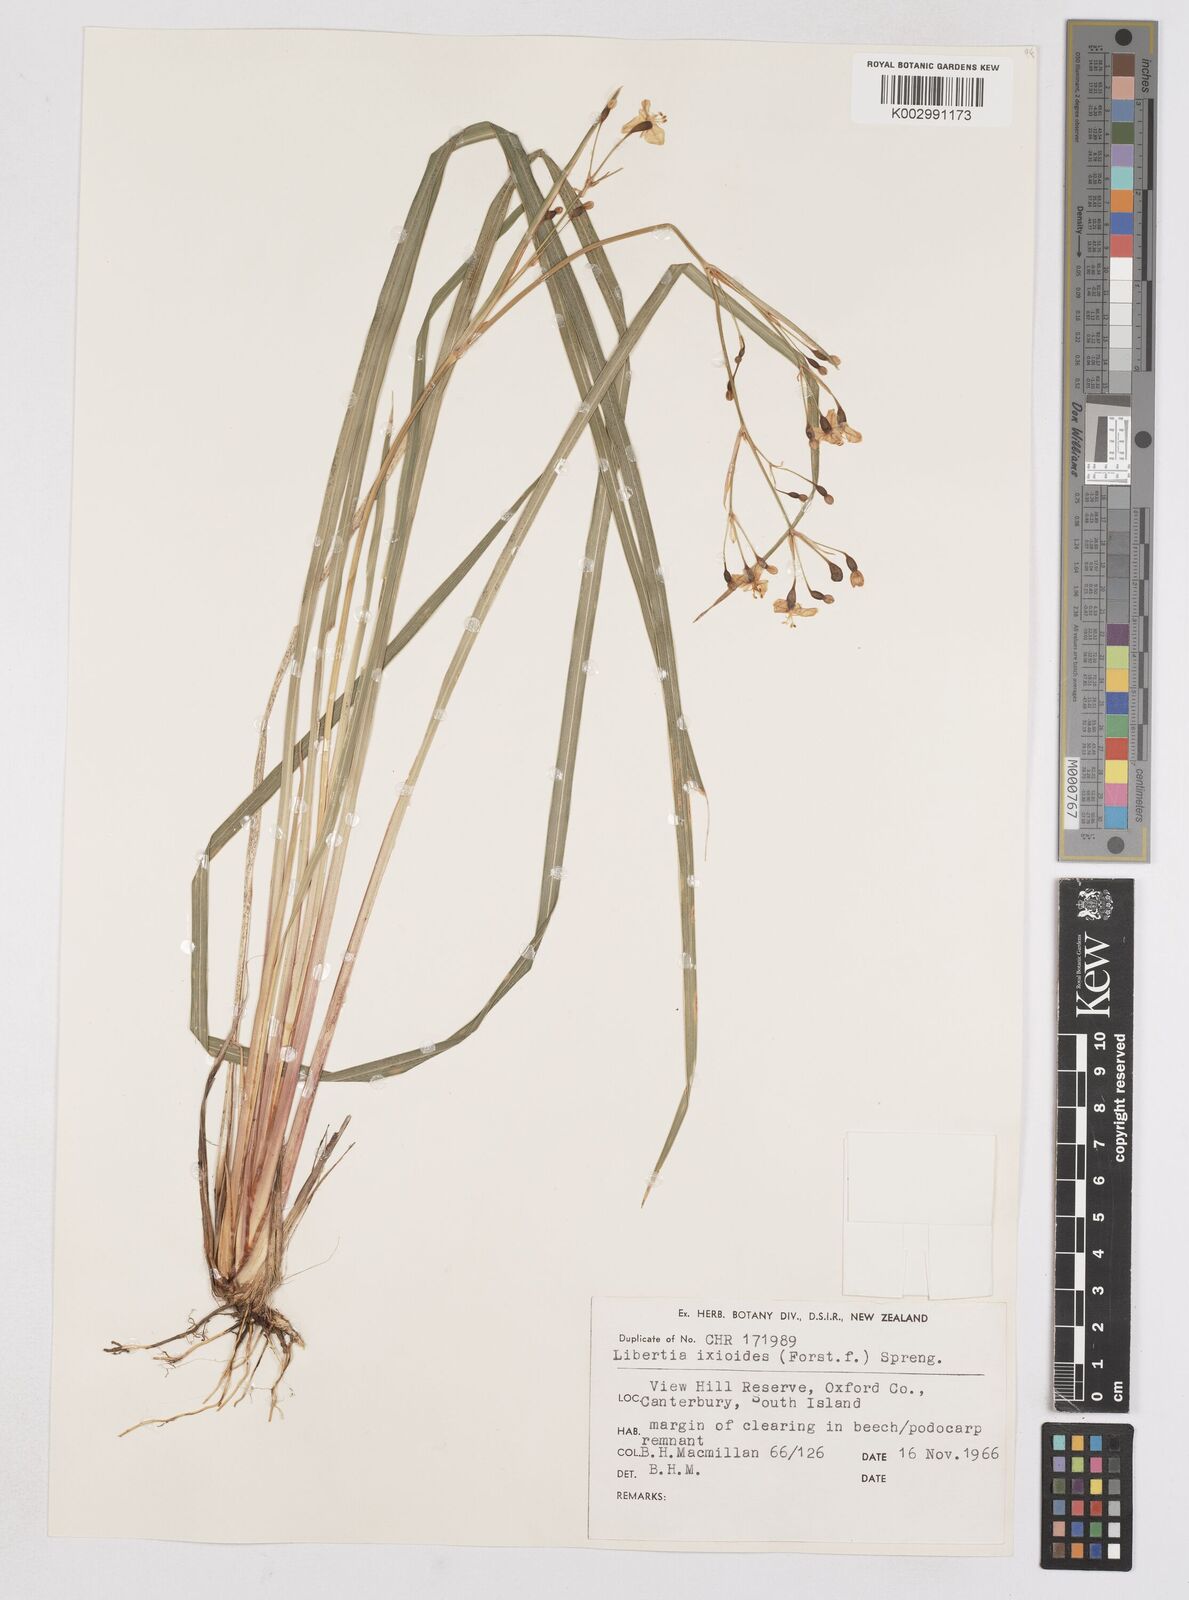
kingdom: Plantae
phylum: Tracheophyta
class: Liliopsida
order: Asparagales
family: Iridaceae
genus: Libertia
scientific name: Libertia ixioides
